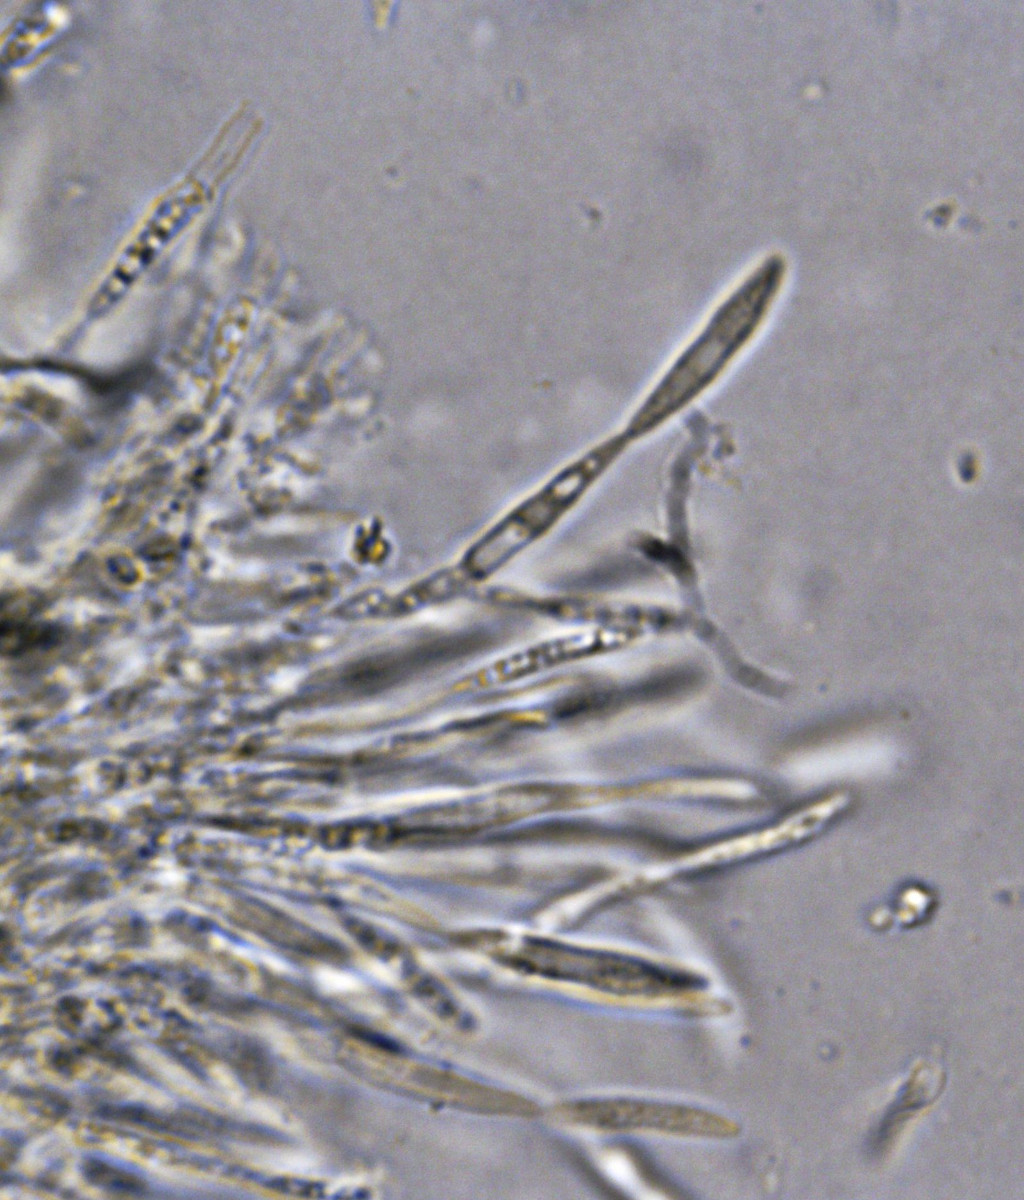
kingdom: Fungi
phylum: Ascomycota
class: Sordariomycetes
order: Diaporthales
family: Gnomoniaceae
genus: Sirococcus
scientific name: Sirococcus conigenus
